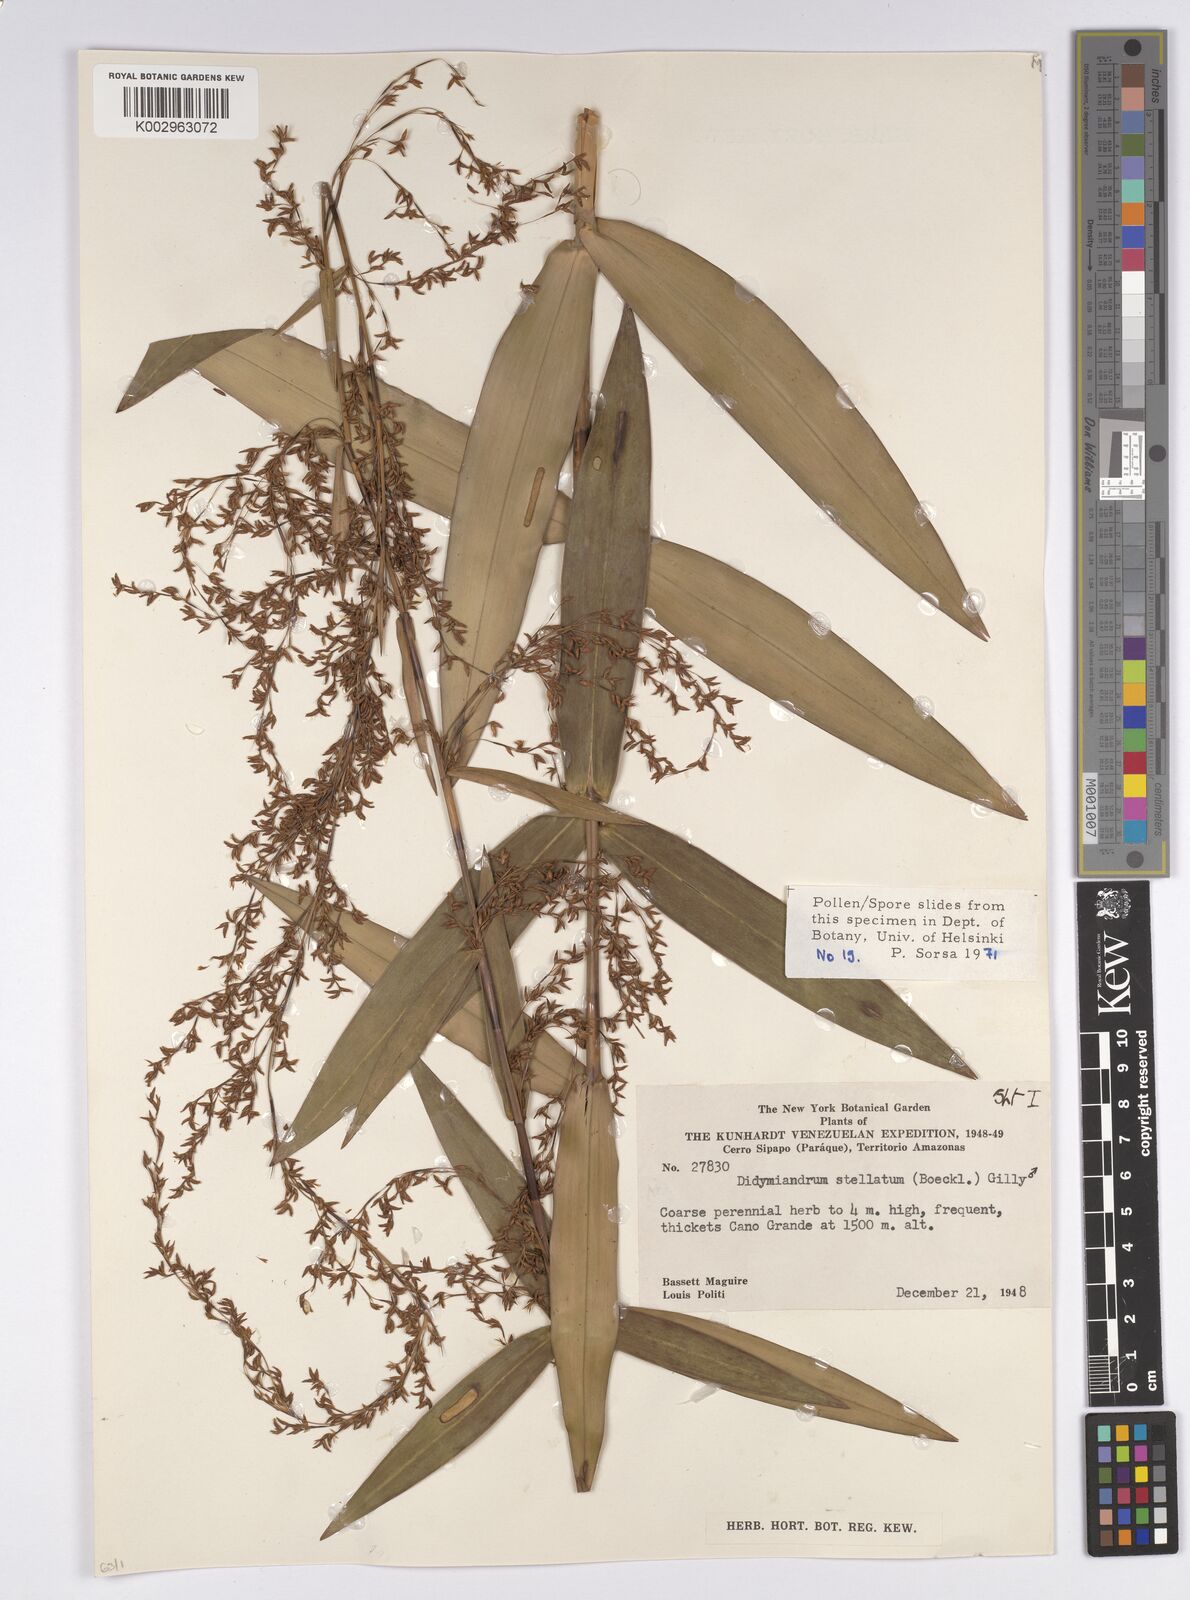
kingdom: Plantae
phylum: Tracheophyta
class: Liliopsida
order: Poales
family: Cyperaceae
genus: Didymiandrum
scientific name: Didymiandrum stellatum
